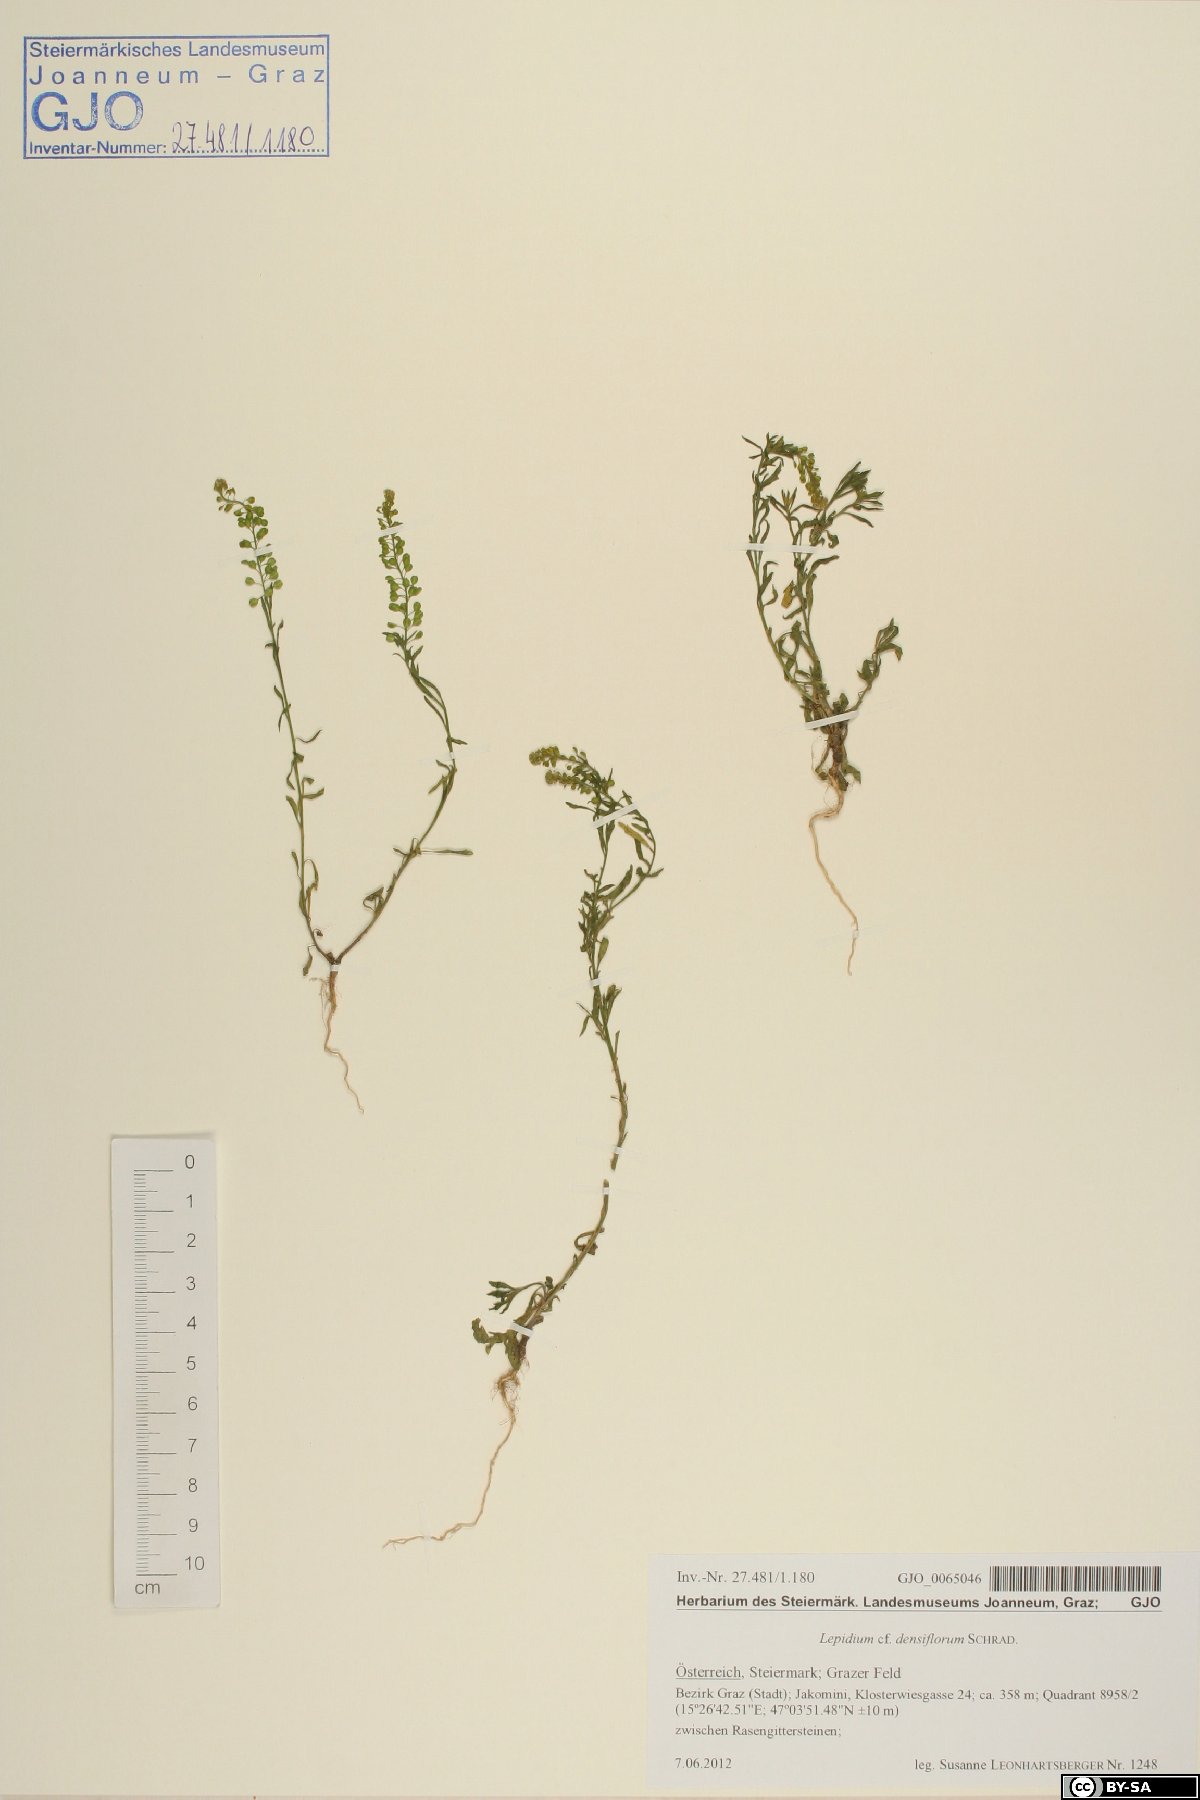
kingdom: Plantae
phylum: Tracheophyta
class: Magnoliopsida
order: Brassicales
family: Brassicaceae
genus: Lepidium
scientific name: Lepidium densiflorum
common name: Miner's pepperwort
